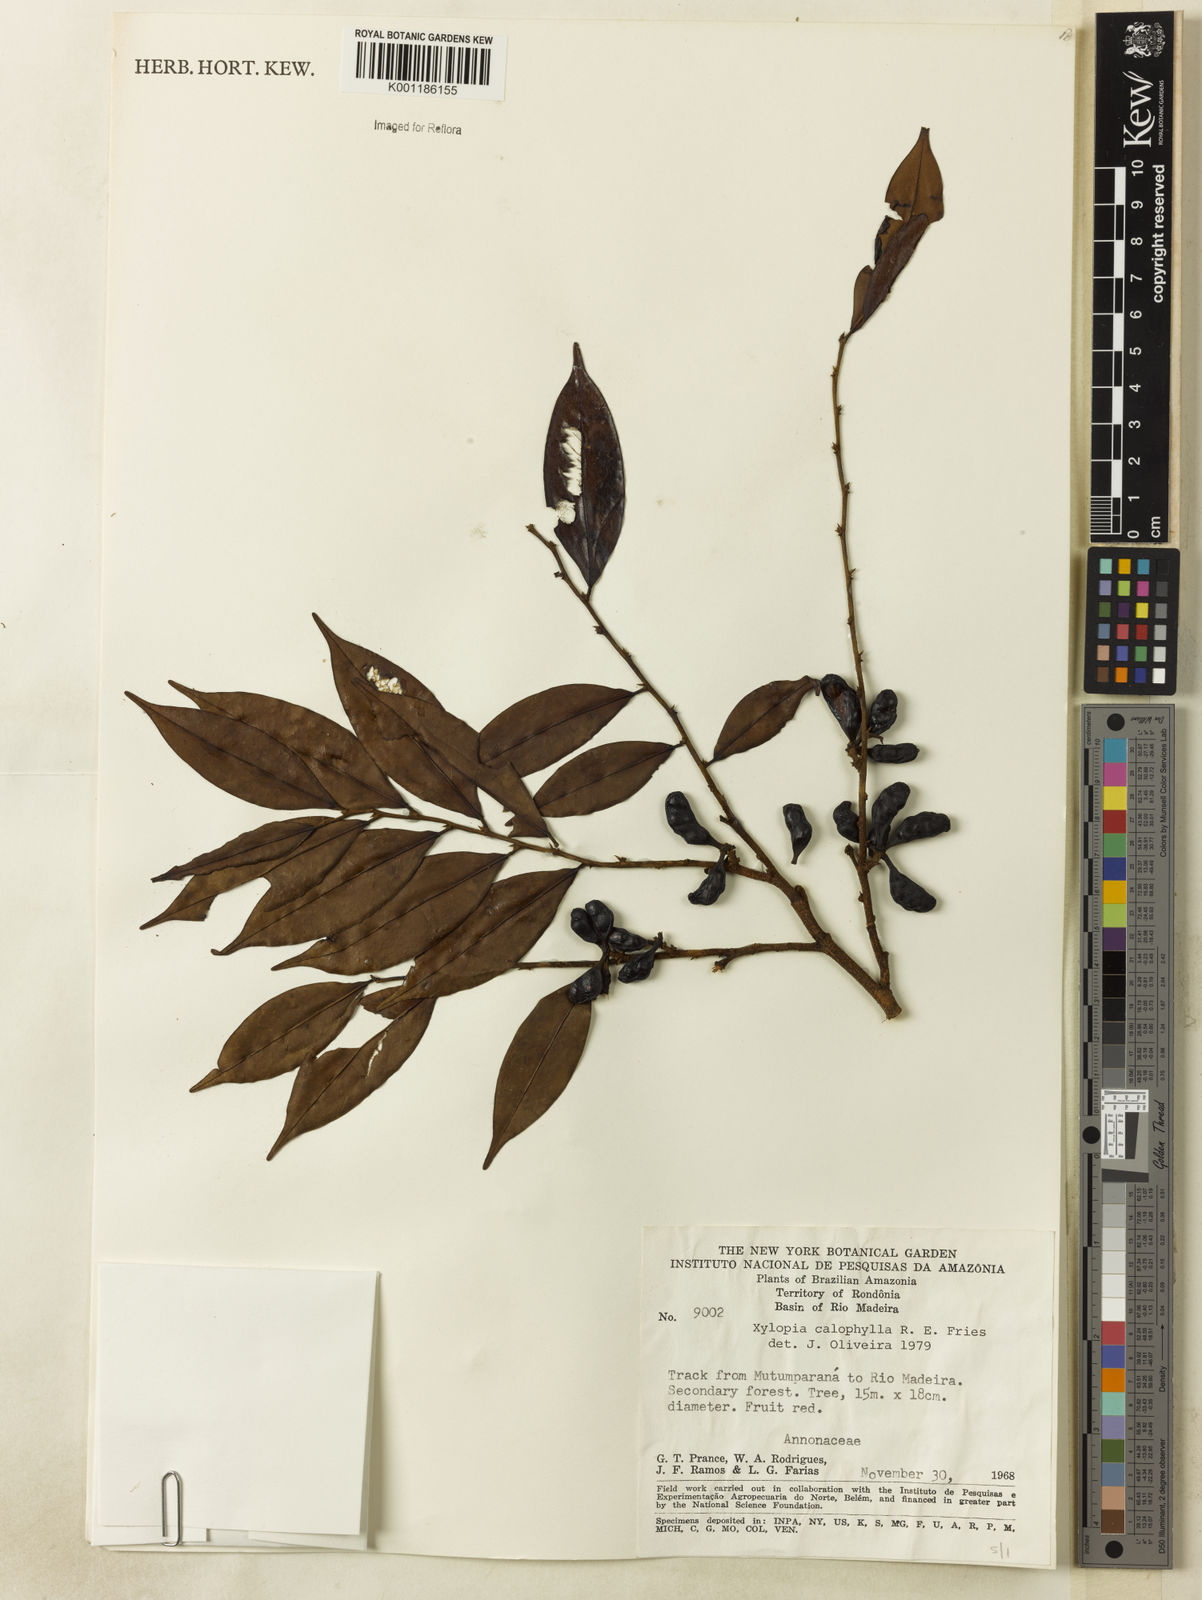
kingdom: Plantae
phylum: Tracheophyta
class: Magnoliopsida
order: Magnoliales
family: Annonaceae
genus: Xylopia
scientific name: Xylopia calophylla
